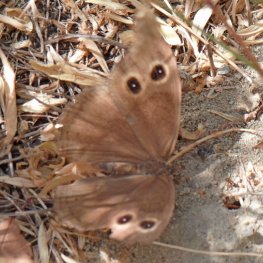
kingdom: Animalia
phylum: Arthropoda
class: Insecta
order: Lepidoptera
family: Nymphalidae
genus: Cercyonis
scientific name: Cercyonis pegala
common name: Common Wood-Nymph
